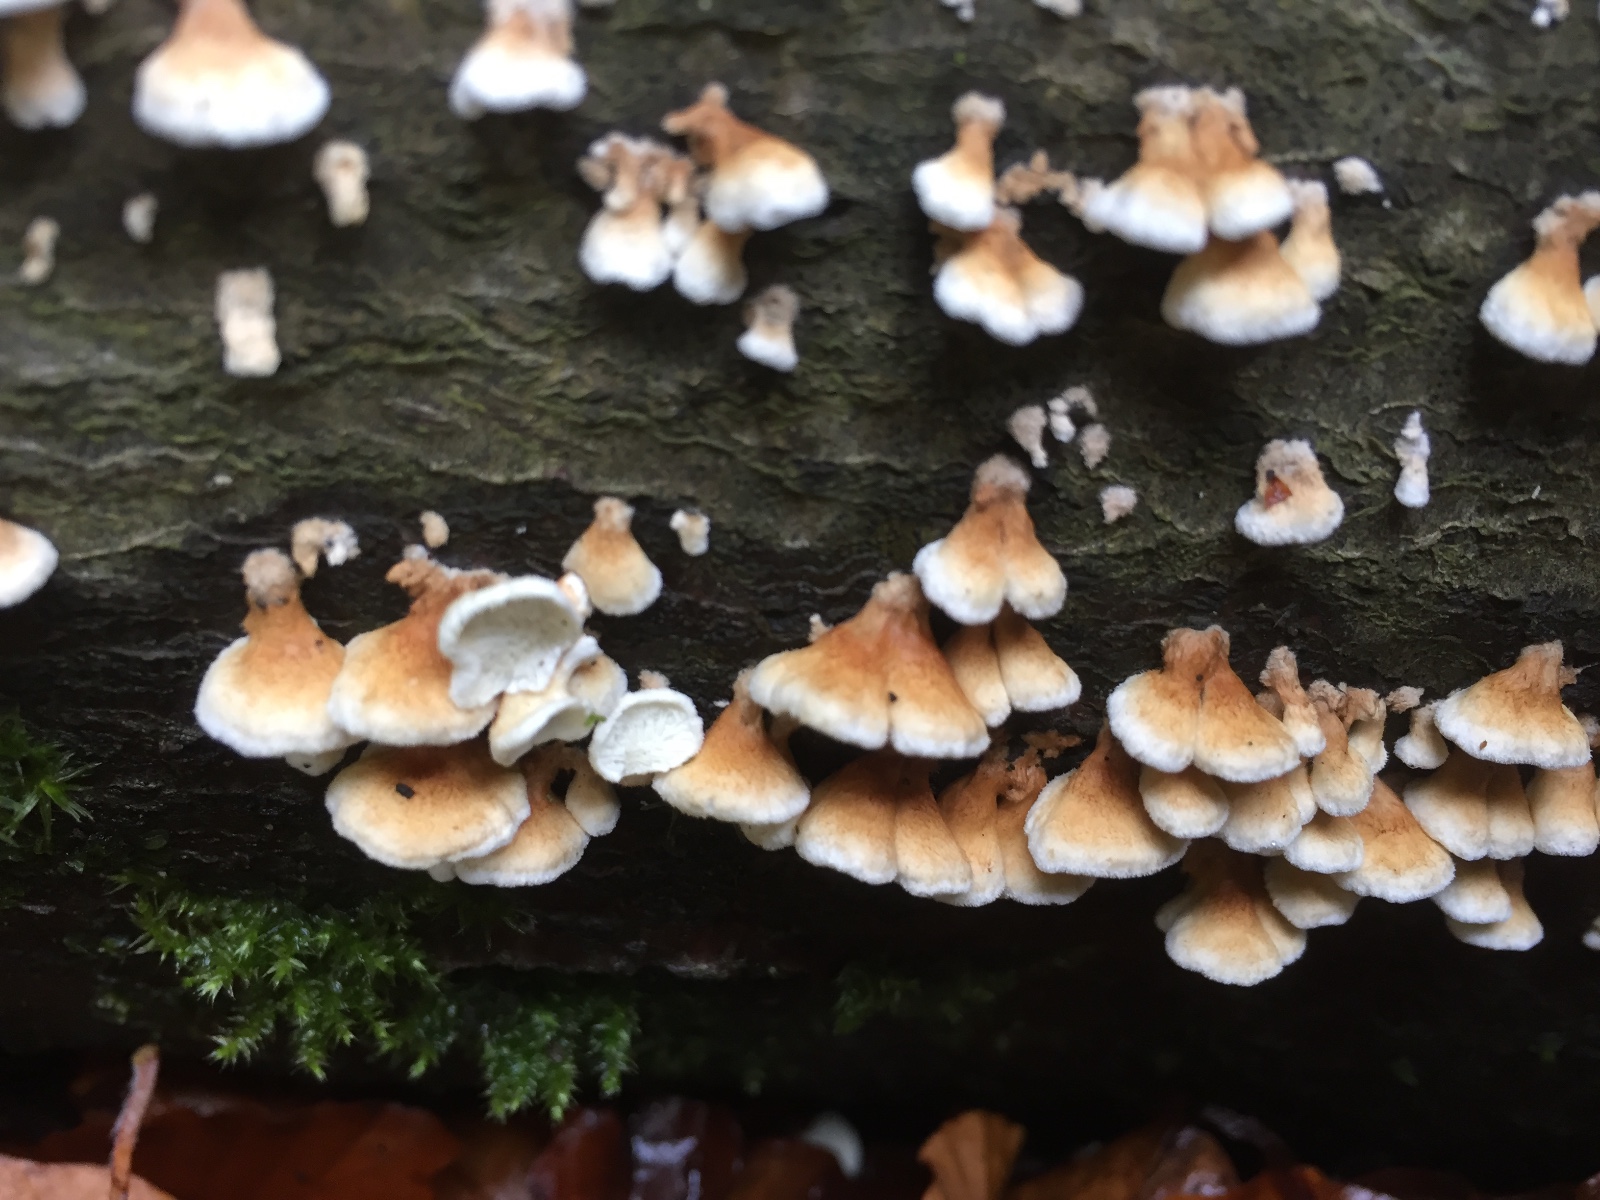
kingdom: Fungi
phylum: Basidiomycota
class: Agaricomycetes
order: Amylocorticiales
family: Amylocorticiaceae
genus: Plicaturopsis
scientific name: Plicaturopsis crispa
